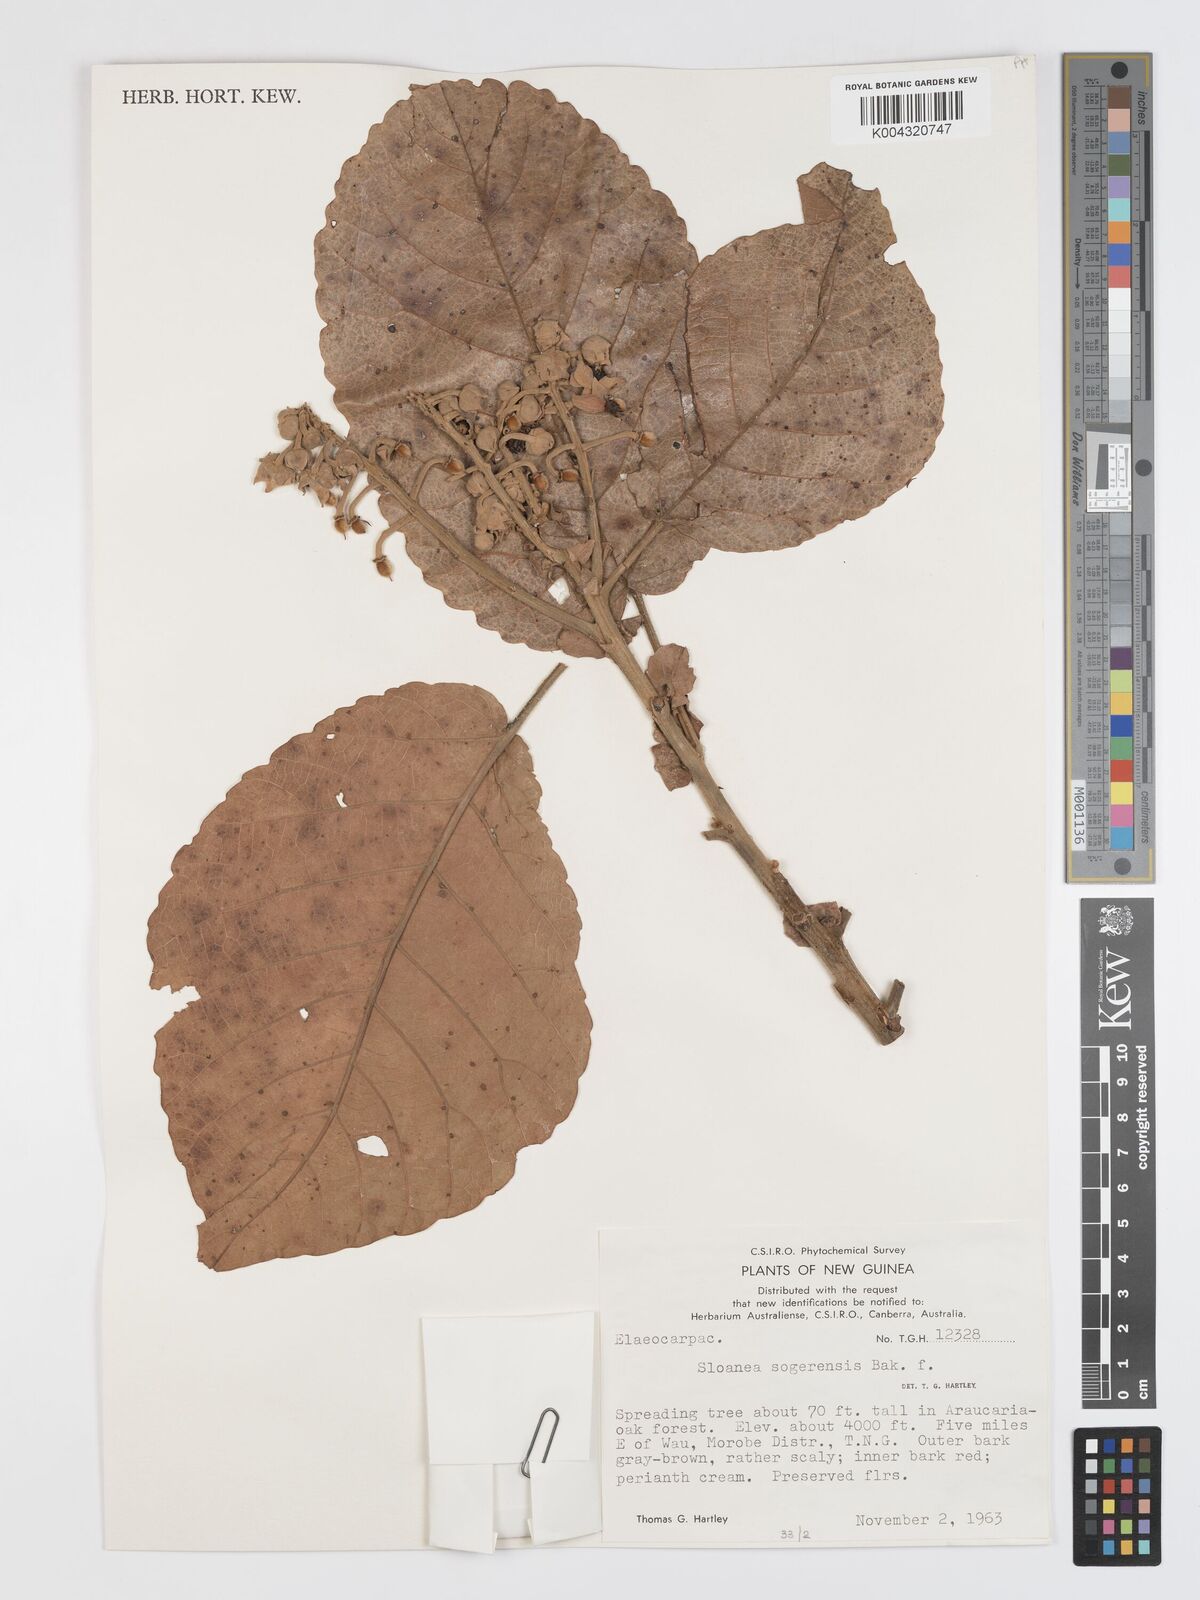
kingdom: Plantae
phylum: Tracheophyta
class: Magnoliopsida
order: Oxalidales
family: Elaeocarpaceae
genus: Sloanea
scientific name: Sloanea sogerensis
